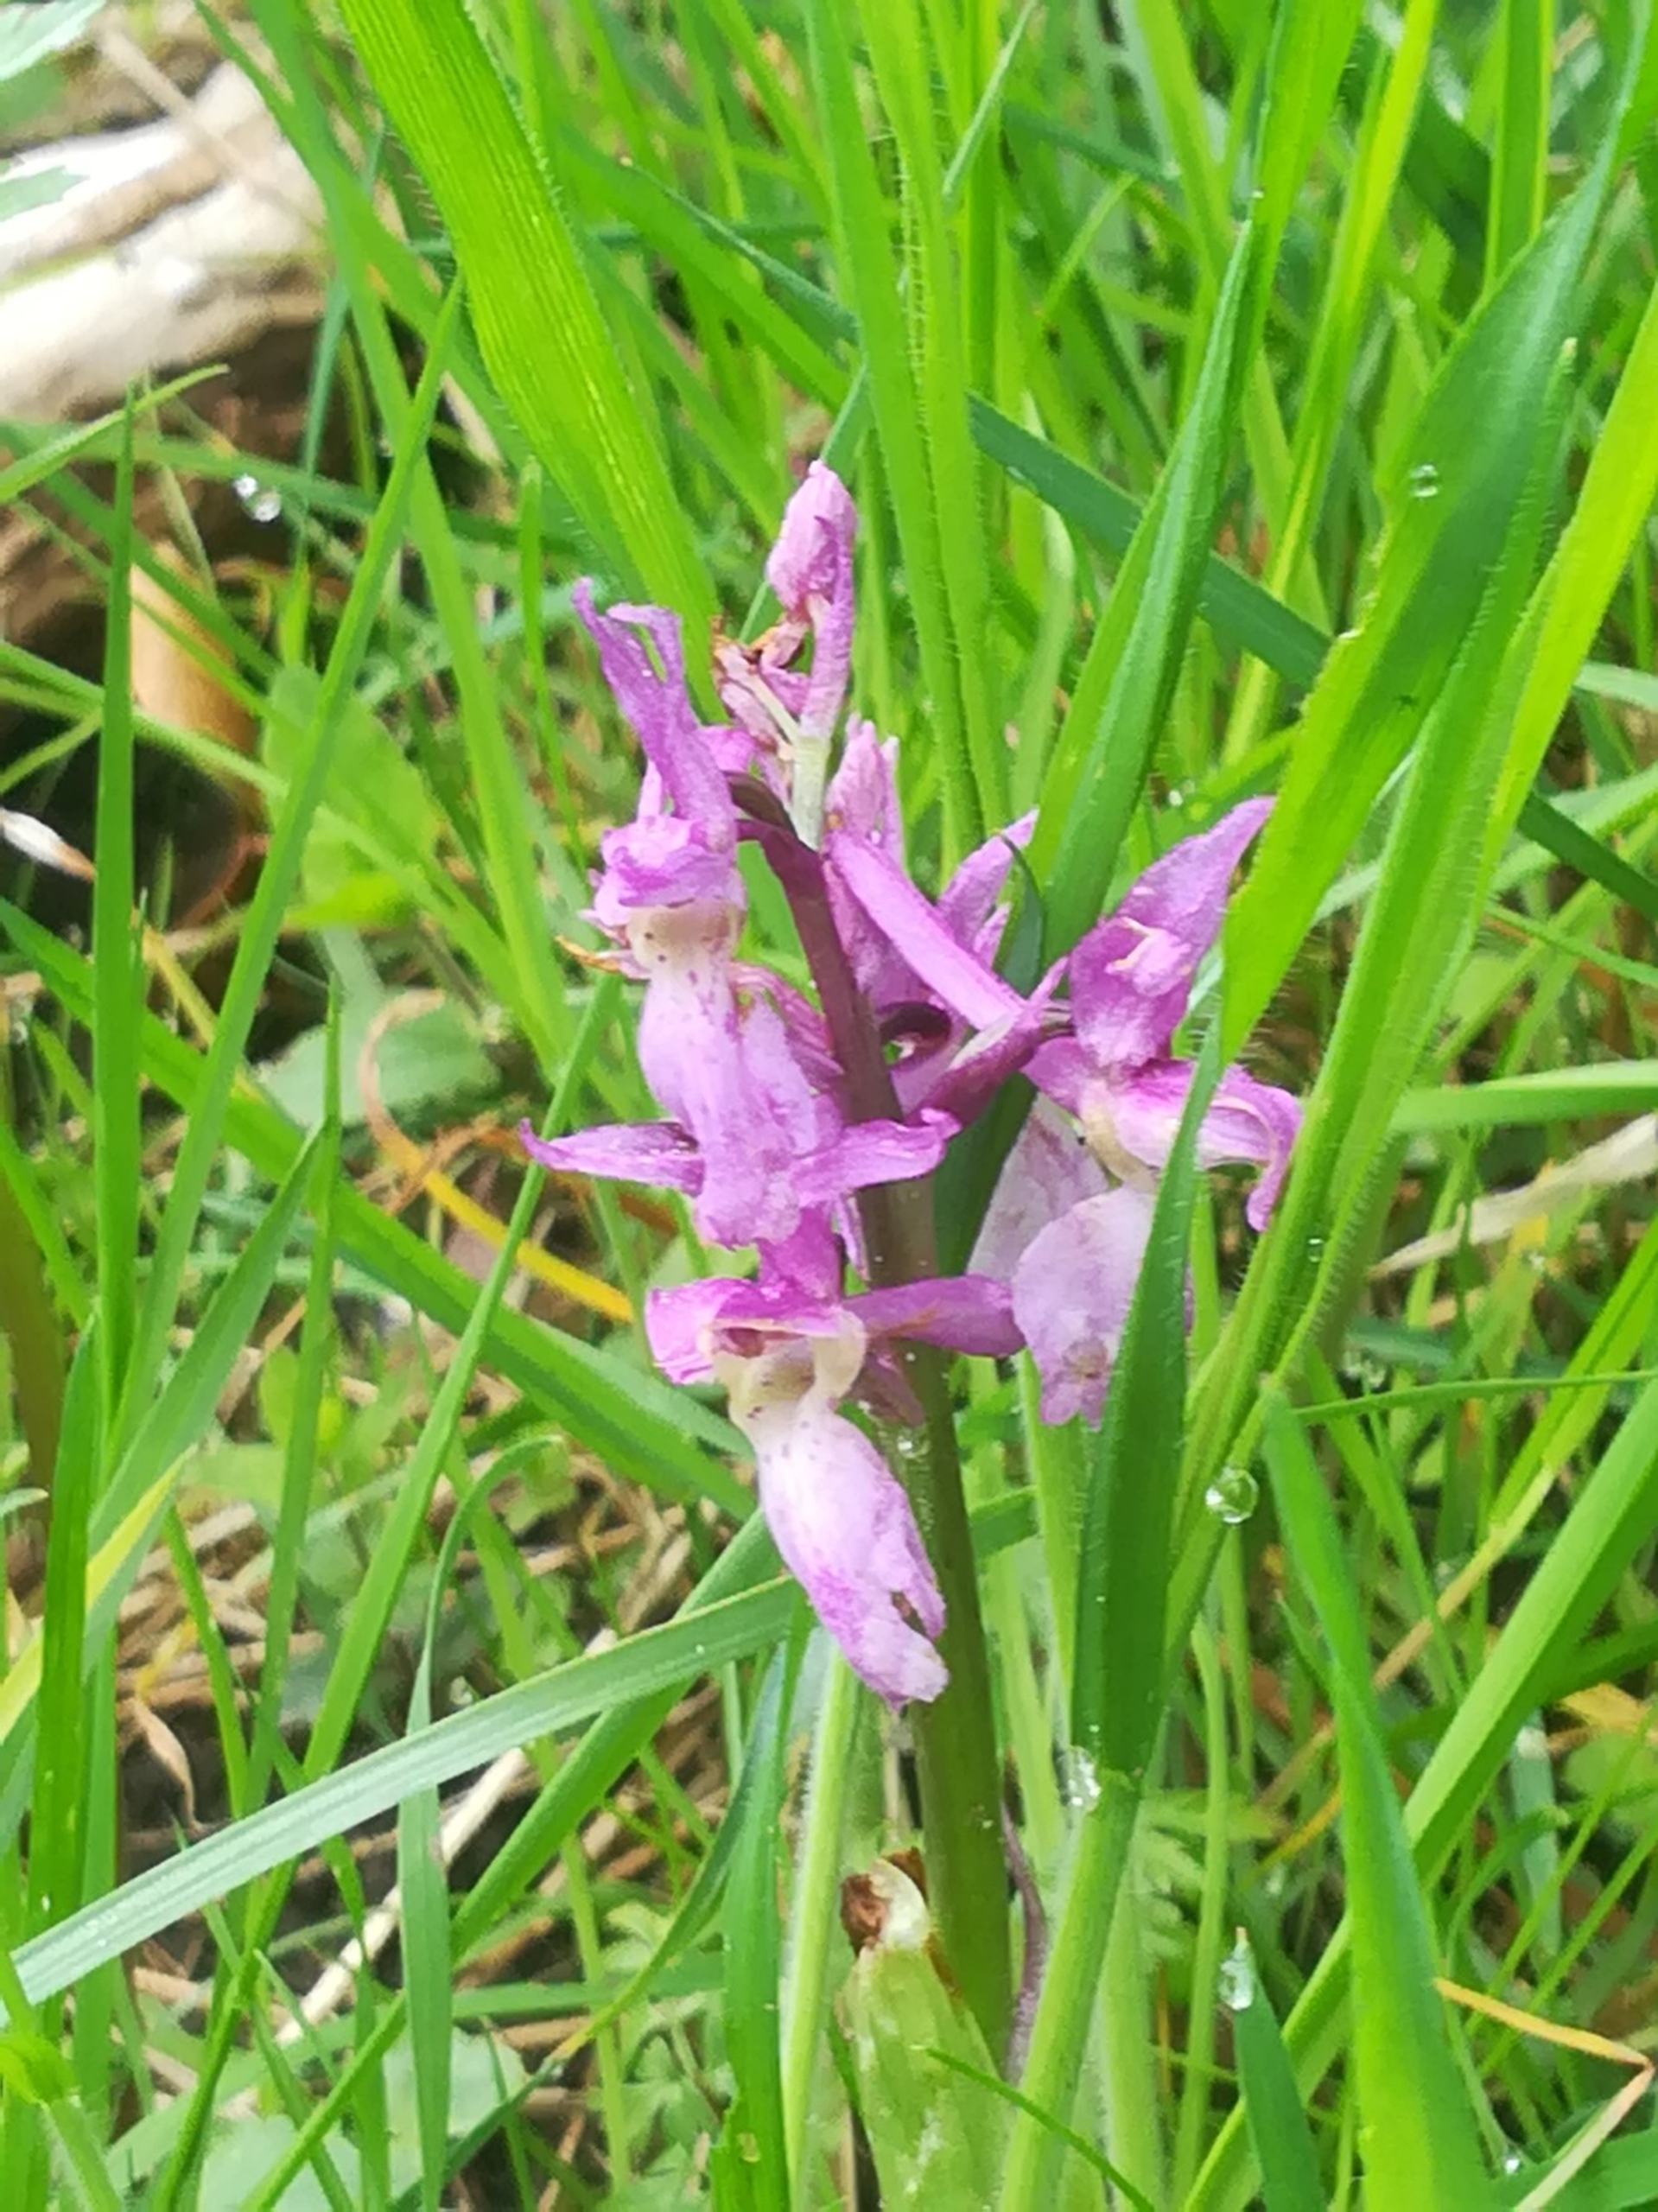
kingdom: Plantae
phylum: Tracheophyta
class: Liliopsida
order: Asparagales
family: Orchidaceae
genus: Orchis
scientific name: Orchis mascula
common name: Tyndakset gøgeurt
